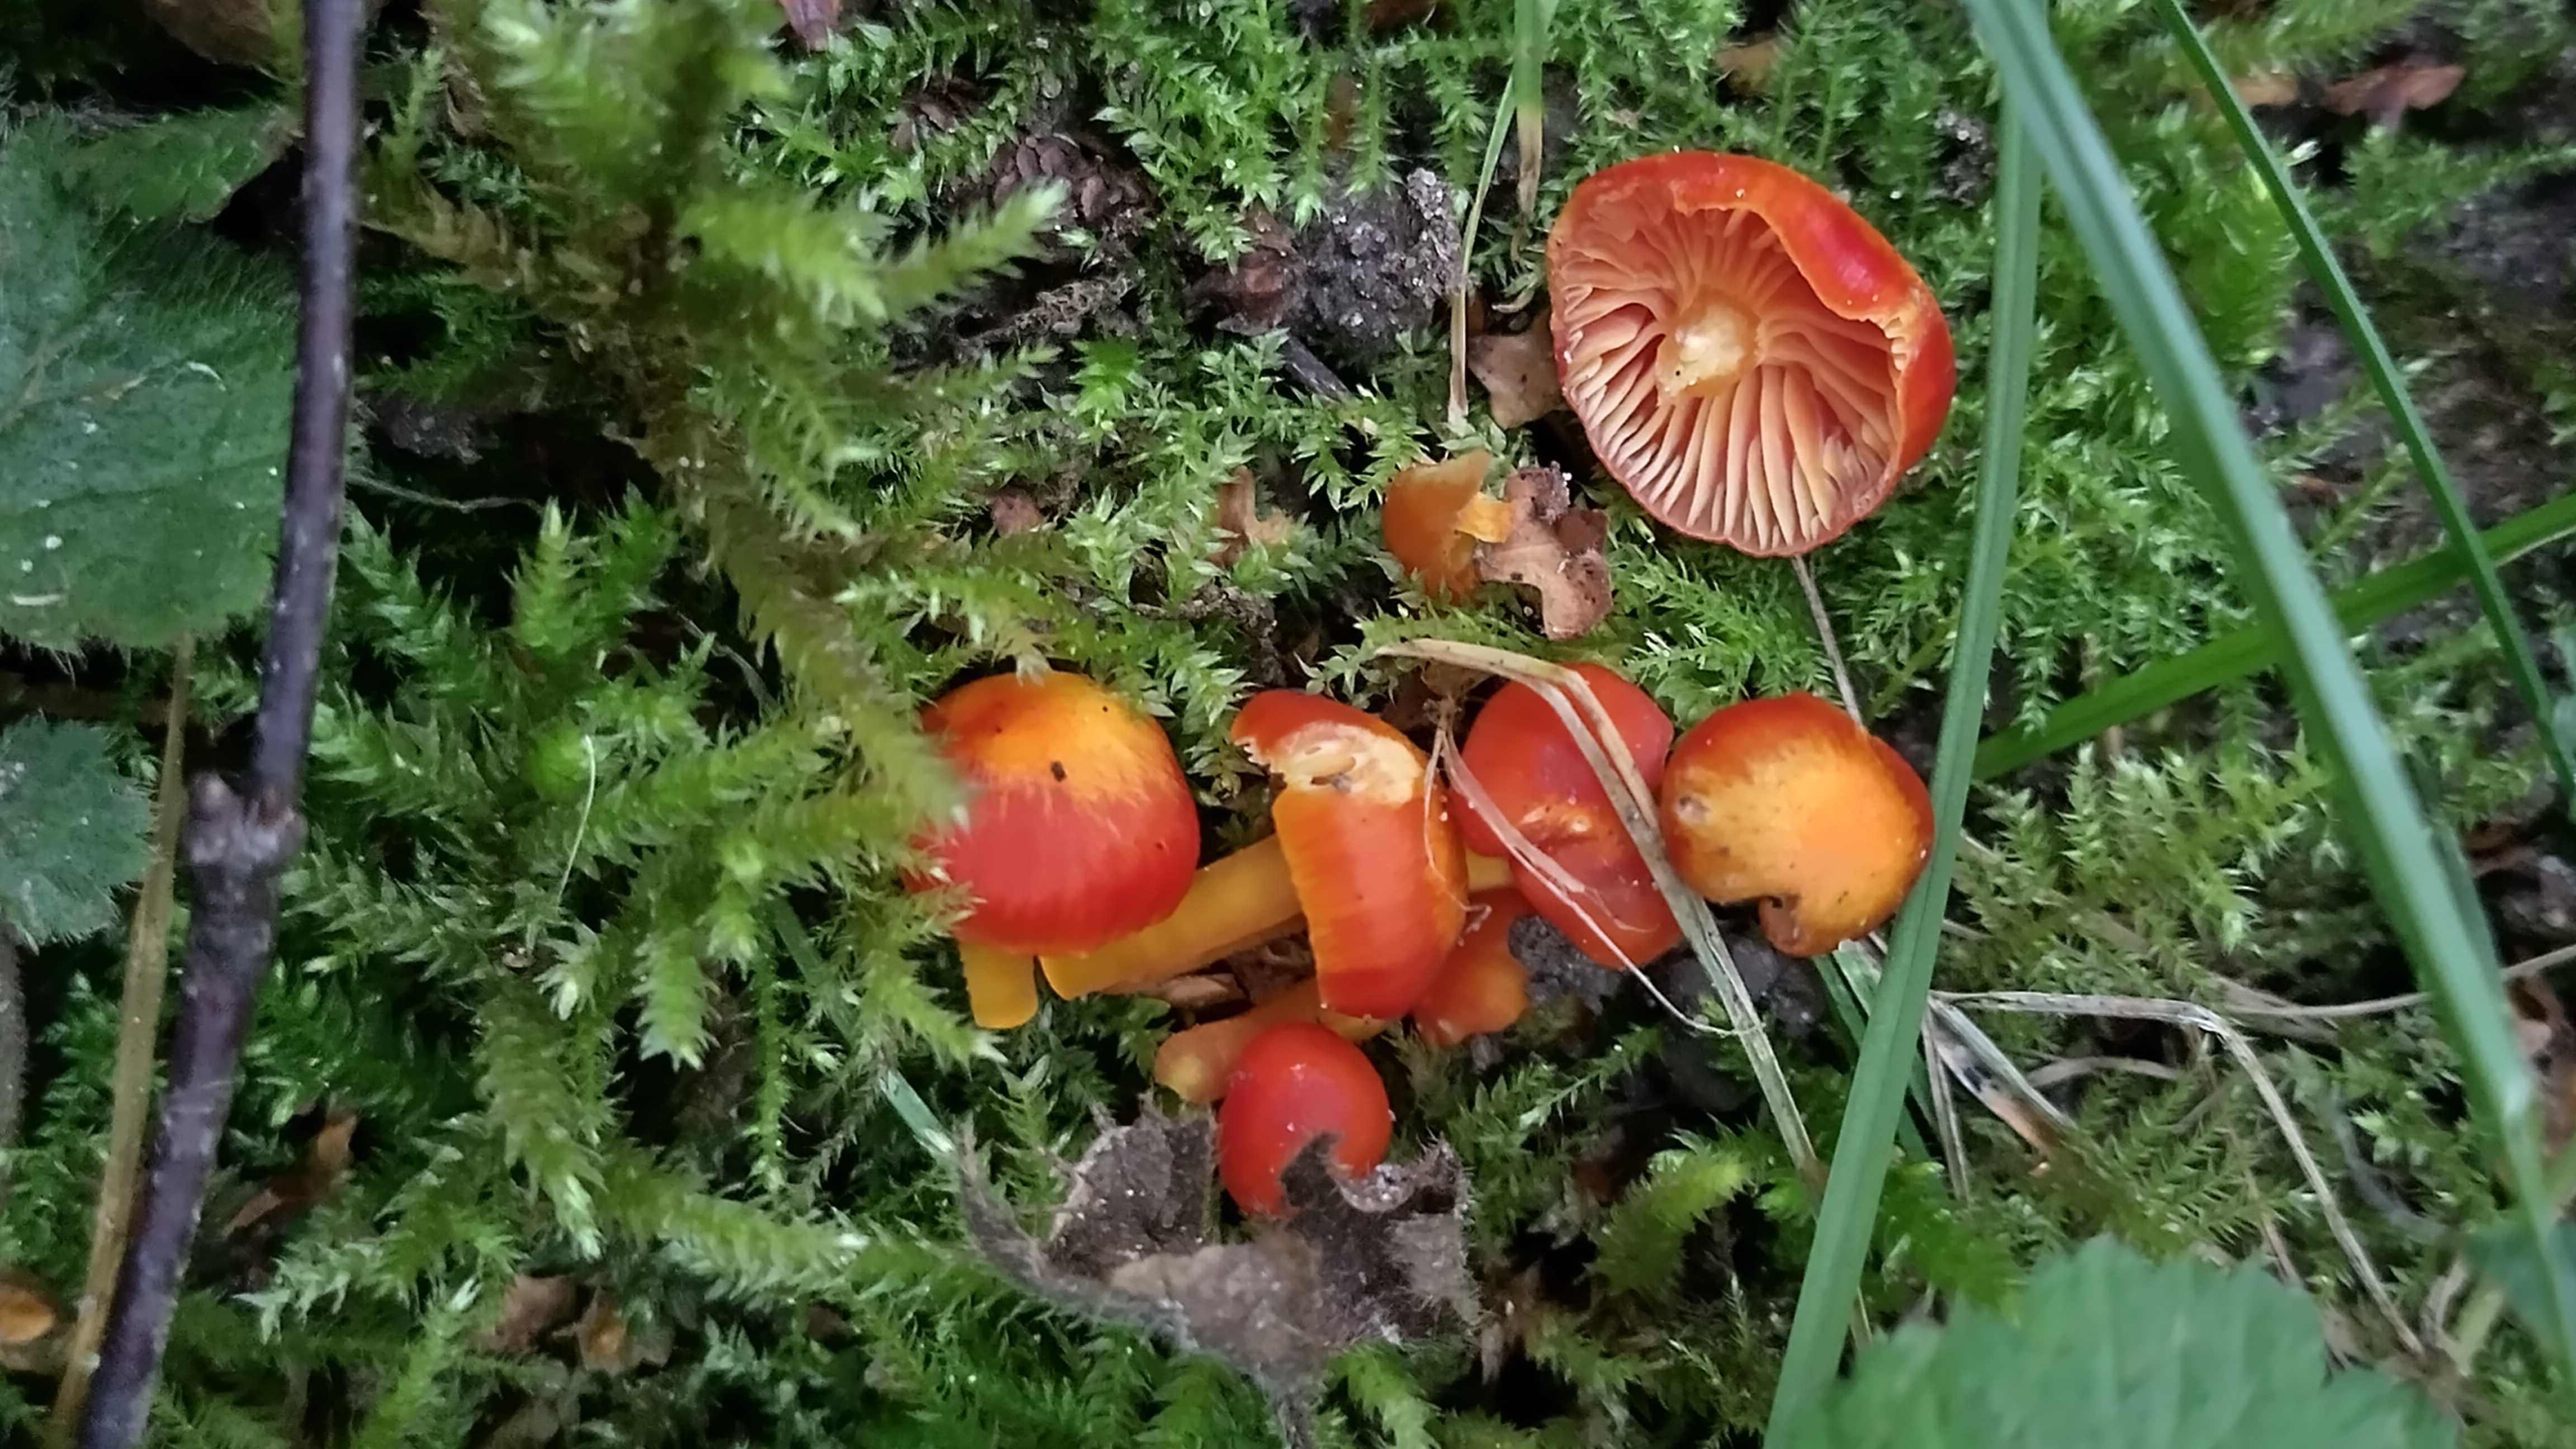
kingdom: Fungi
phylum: Basidiomycota
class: Agaricomycetes
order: Agaricales
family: Hygrophoraceae
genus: Hygrocybe
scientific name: Hygrocybe
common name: vokshat
